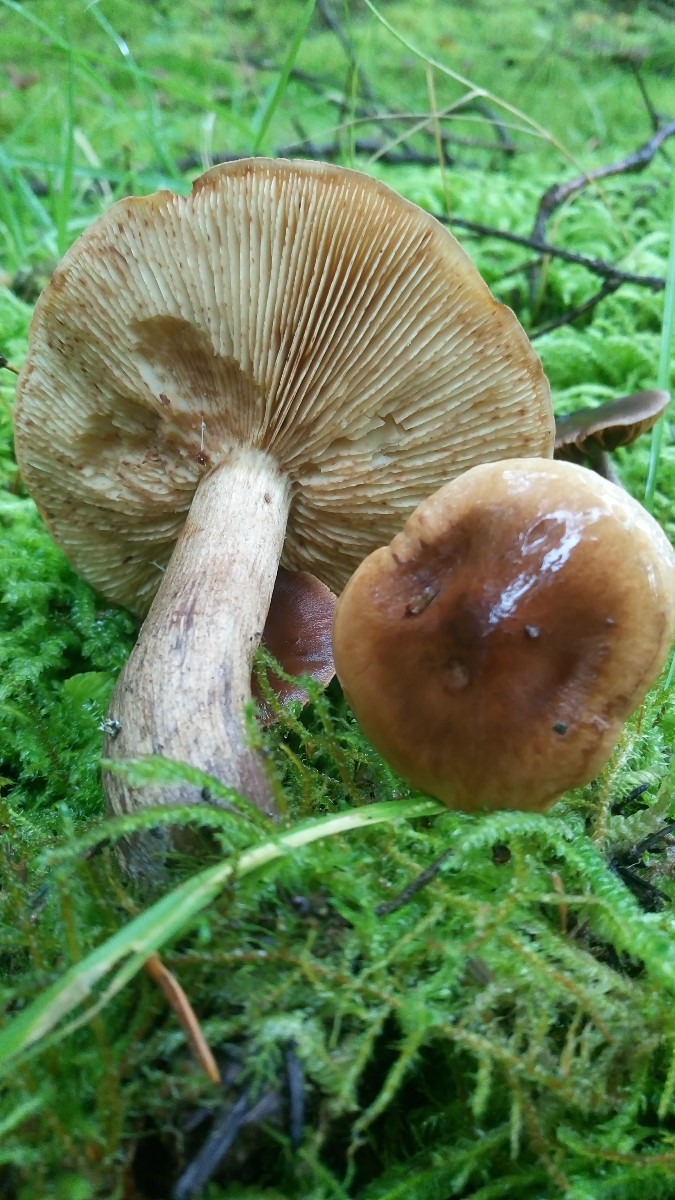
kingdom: Fungi
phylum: Basidiomycota
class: Agaricomycetes
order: Agaricales
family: Tricholomataceae
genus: Tricholoma
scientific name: Tricholoma fulvum
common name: birke-ridderhat
